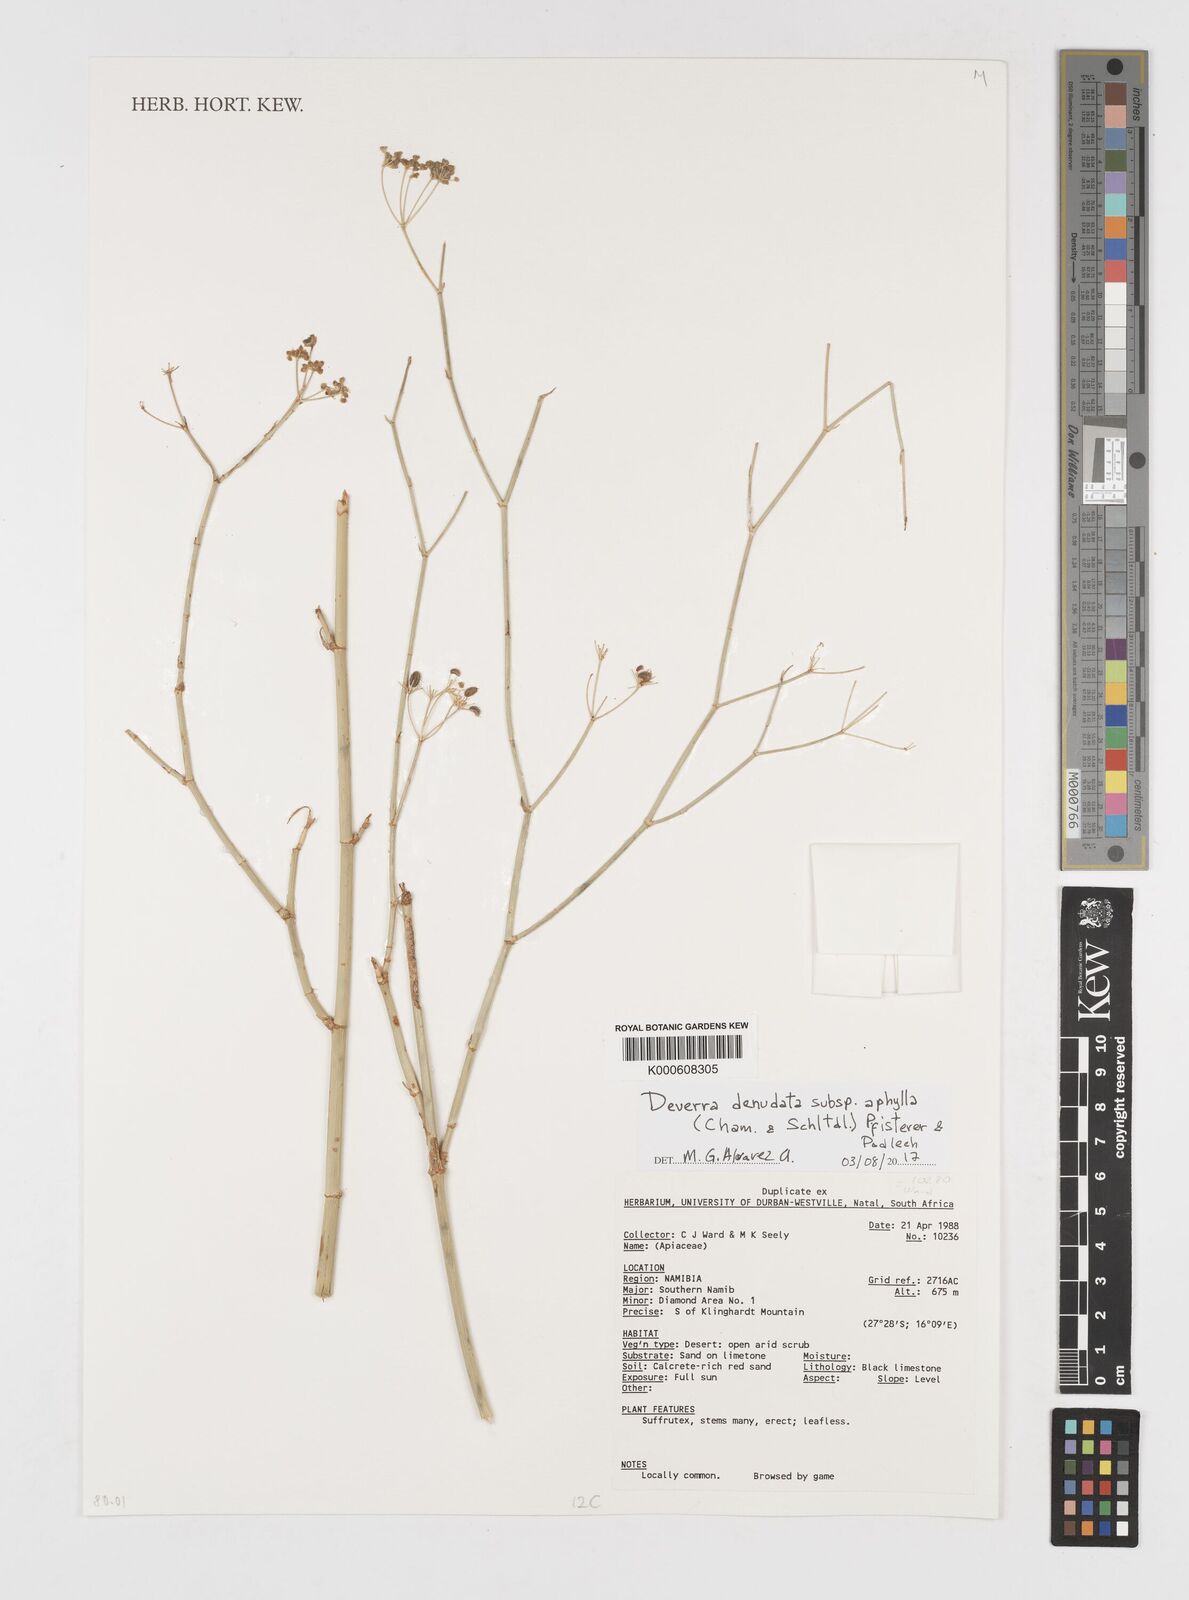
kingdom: Plantae
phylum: Tracheophyta
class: Magnoliopsida
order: Apiales
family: Apiaceae
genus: Deverra
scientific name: Deverra aphylla
